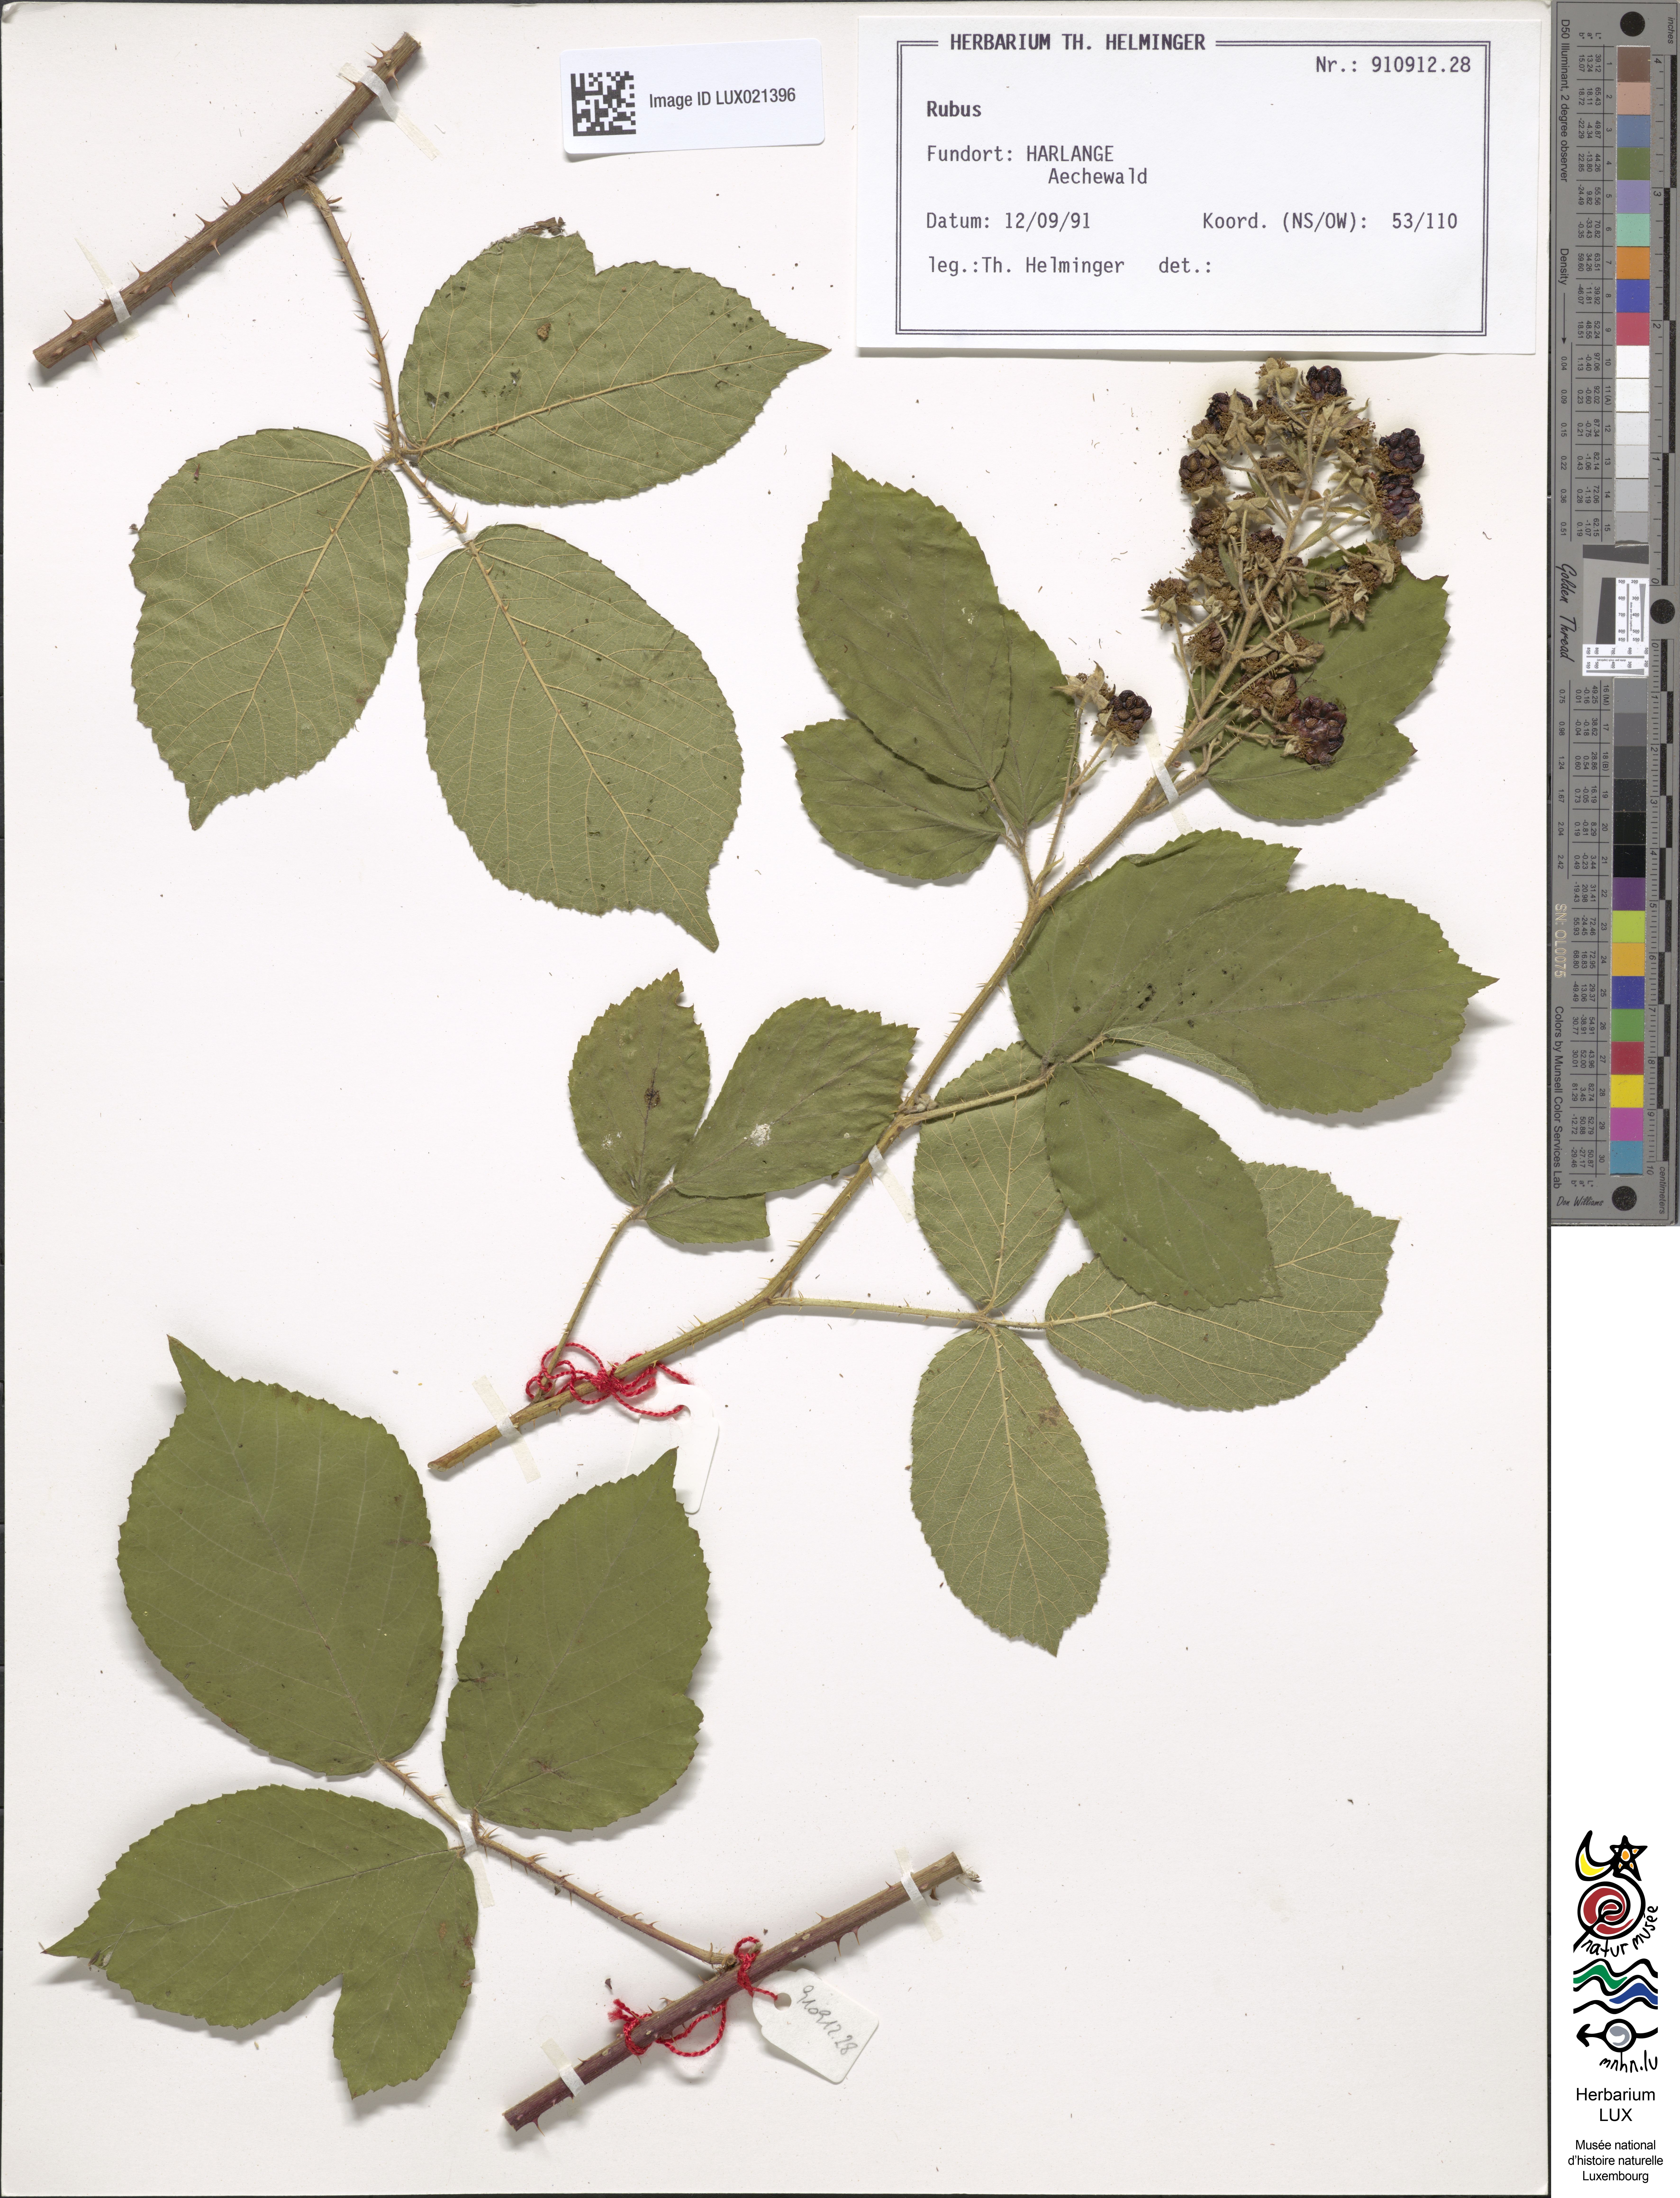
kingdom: Plantae
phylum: Tracheophyta
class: Magnoliopsida
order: Rosales
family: Rosaceae
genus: Rubus
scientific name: Rubus
